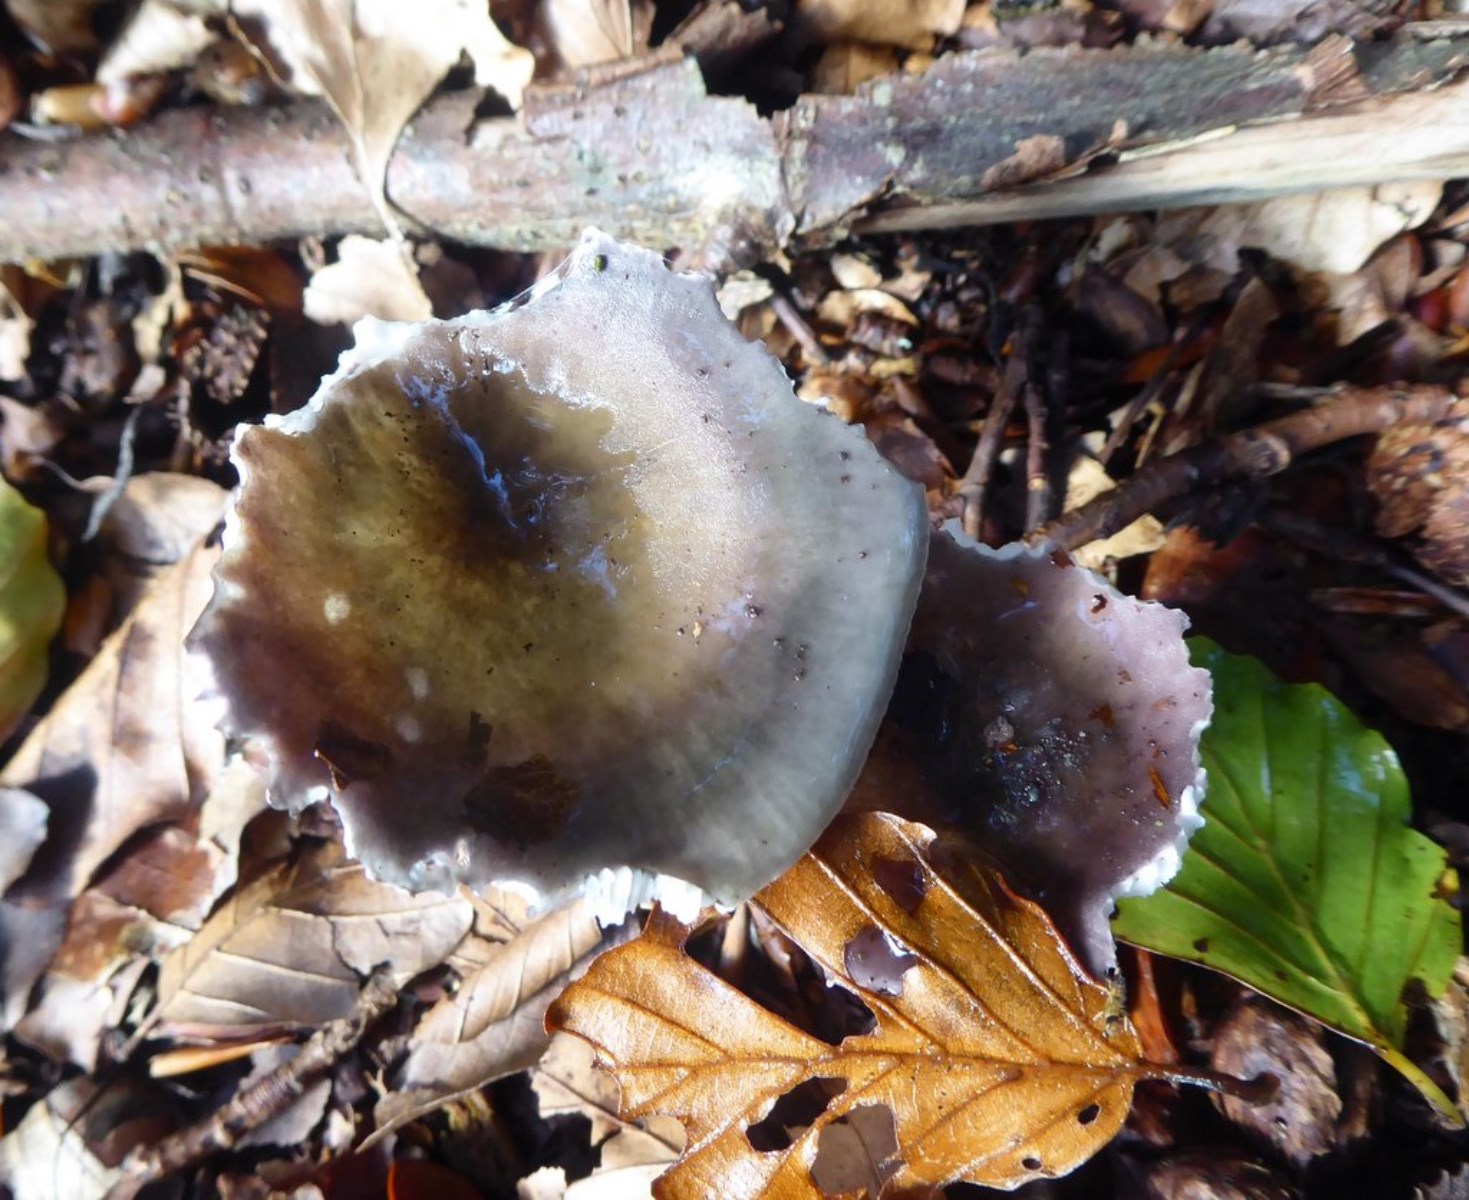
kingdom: Fungi
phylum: Basidiomycota
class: Agaricomycetes
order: Russulales
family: Russulaceae
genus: Russula
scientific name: Russula ionochlora
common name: violetgrøn skørhat
